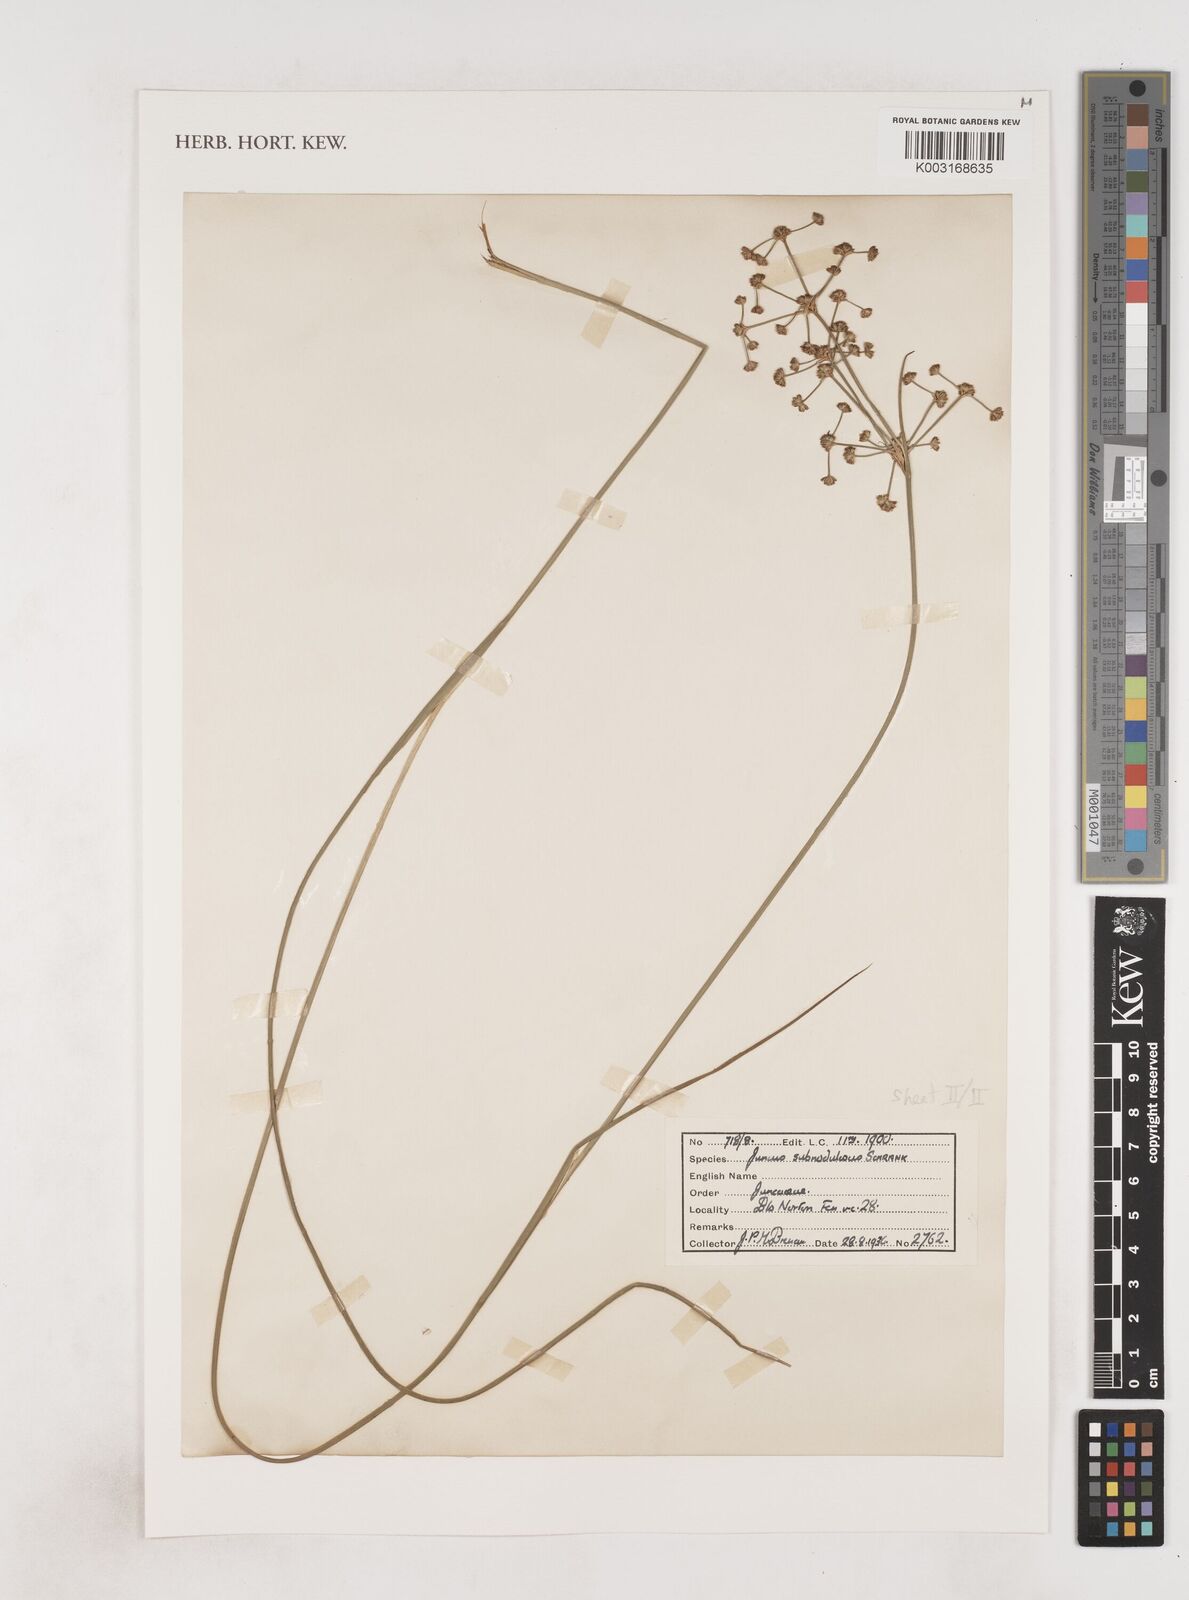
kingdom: Plantae
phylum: Tracheophyta
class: Liliopsida
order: Poales
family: Juncaceae
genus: Juncus
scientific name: Juncus subnodulosus
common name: Blunt-flowered rush
